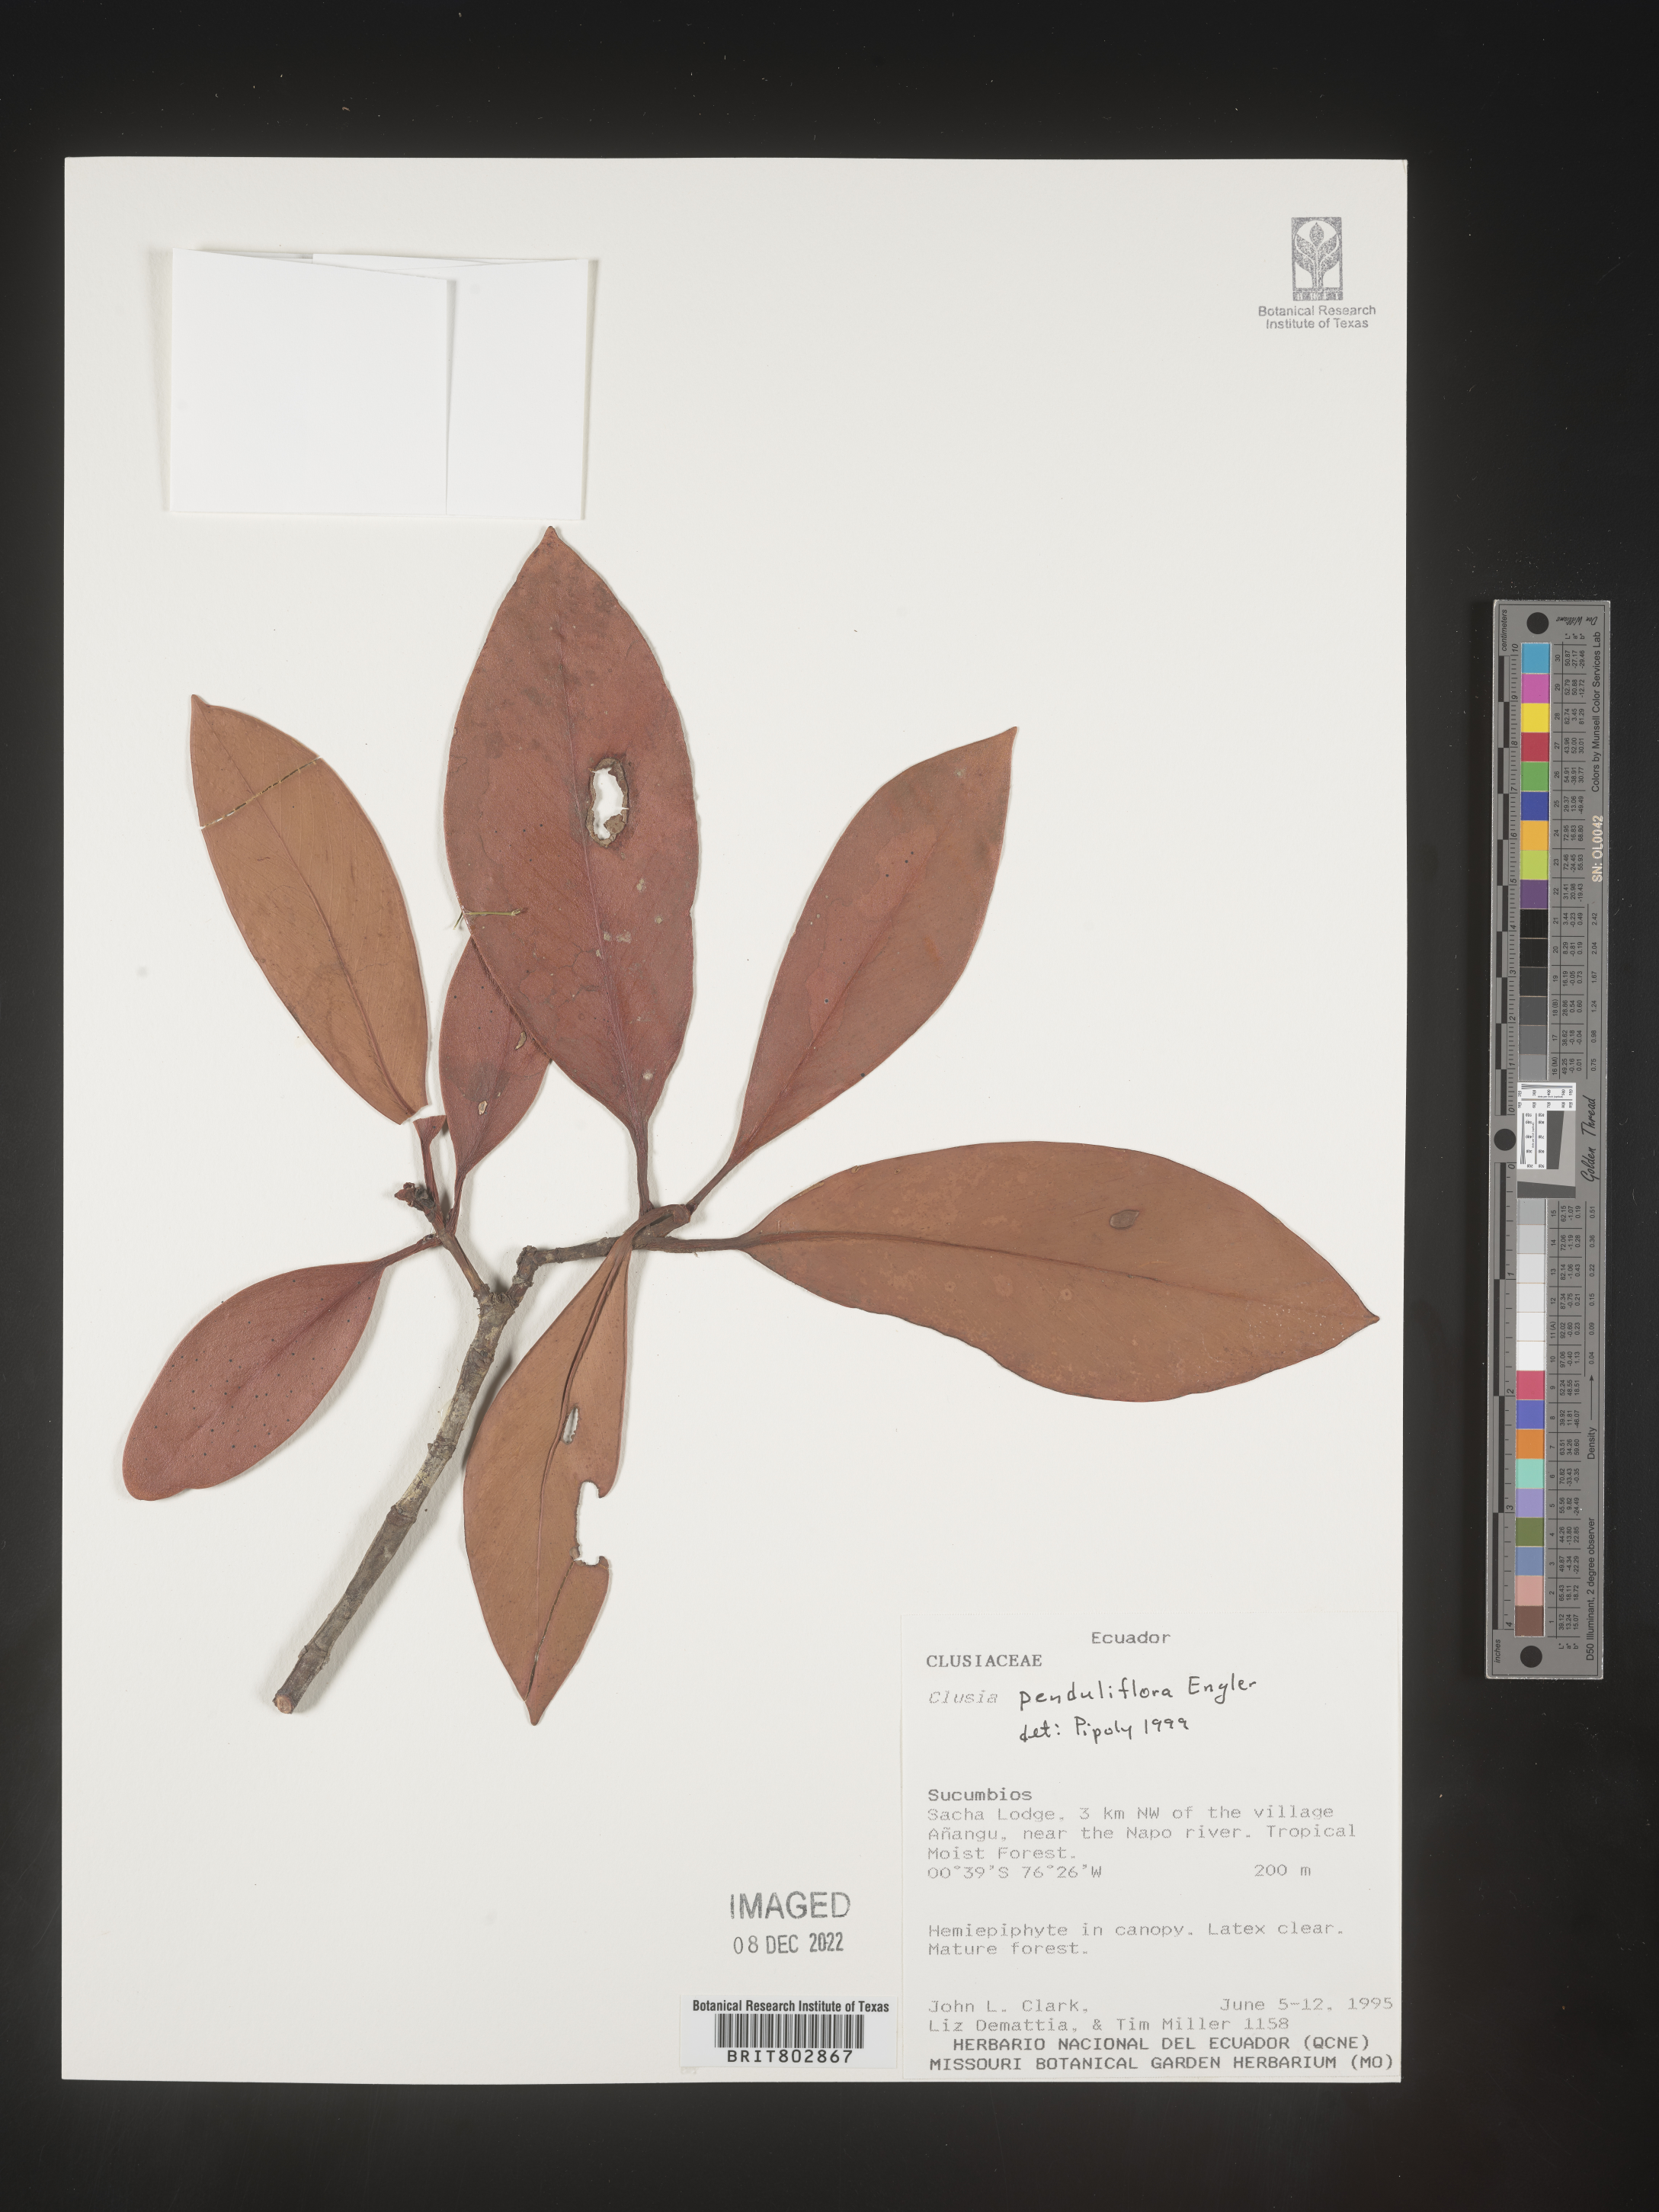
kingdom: Plantae
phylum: Tracheophyta
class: Magnoliopsida
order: Malpighiales
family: Clusiaceae
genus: Clusia
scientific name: Clusia
